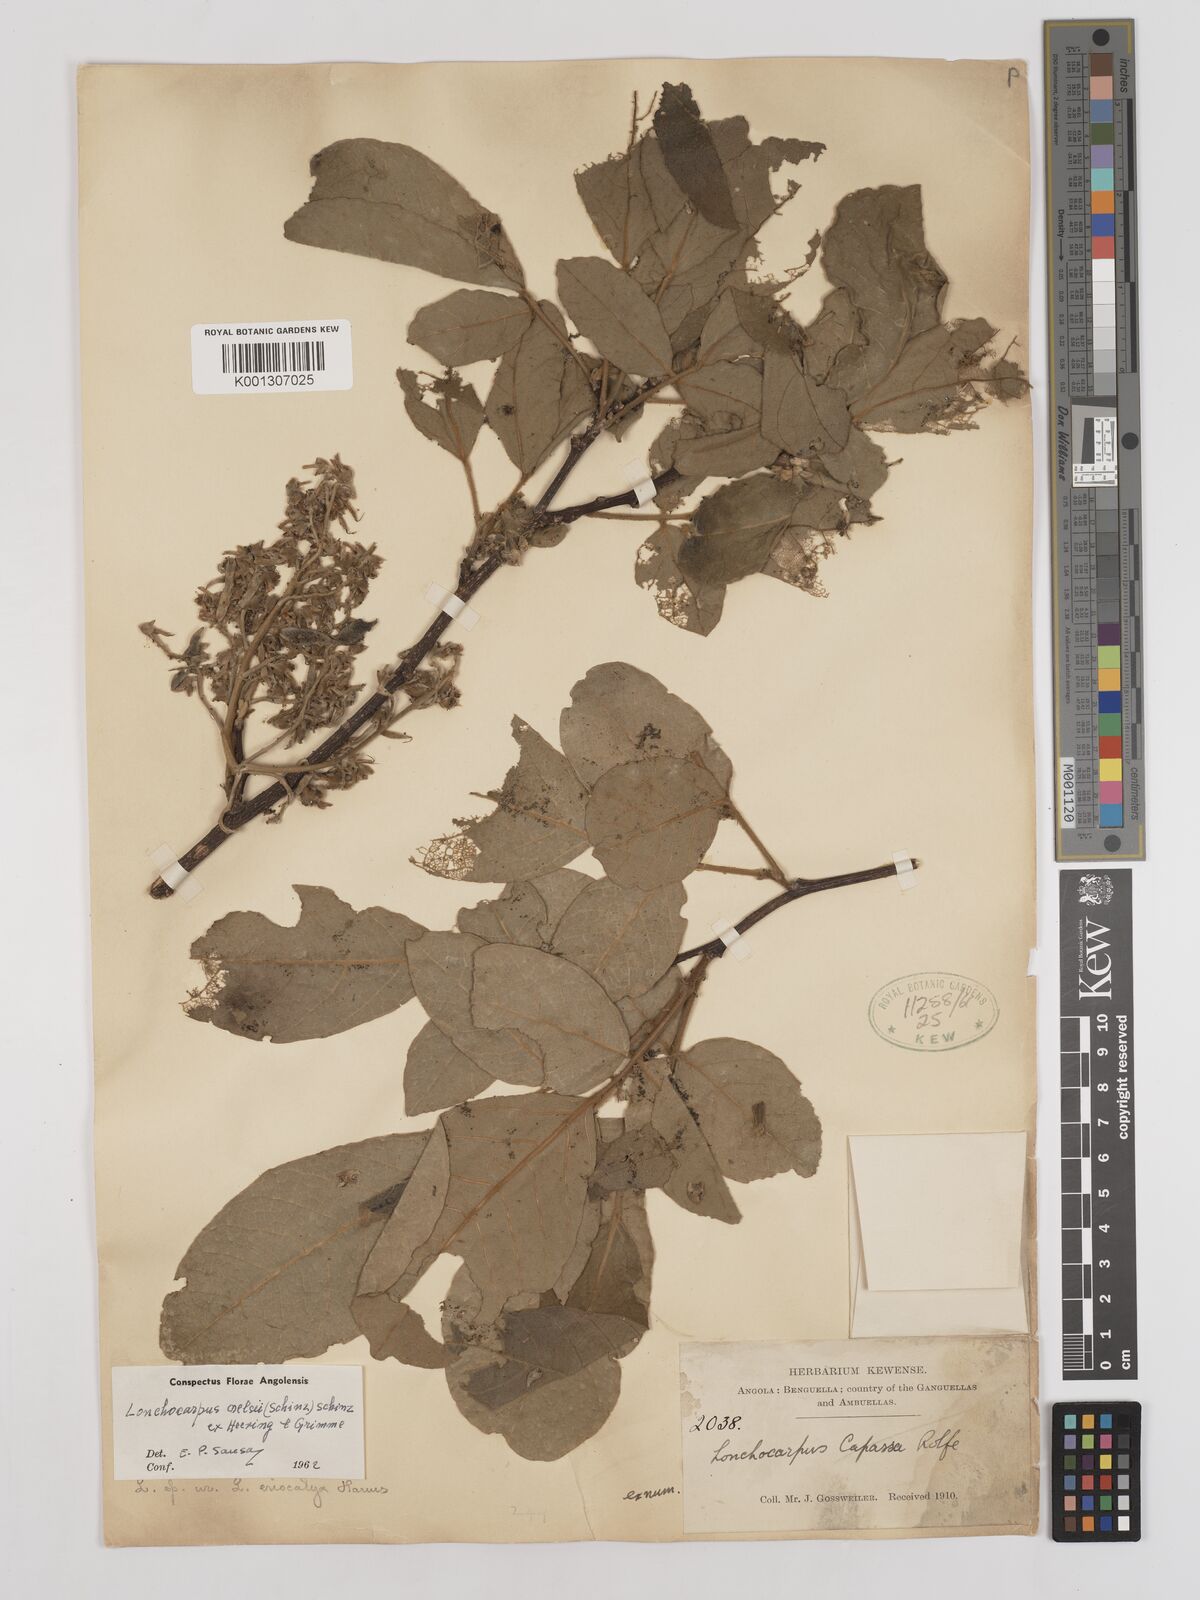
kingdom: Plantae
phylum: Tracheophyta
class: Magnoliopsida
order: Fabales
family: Fabaceae
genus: Philenoptera
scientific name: Philenoptera nelsii
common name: Kalahari apple-leaf
